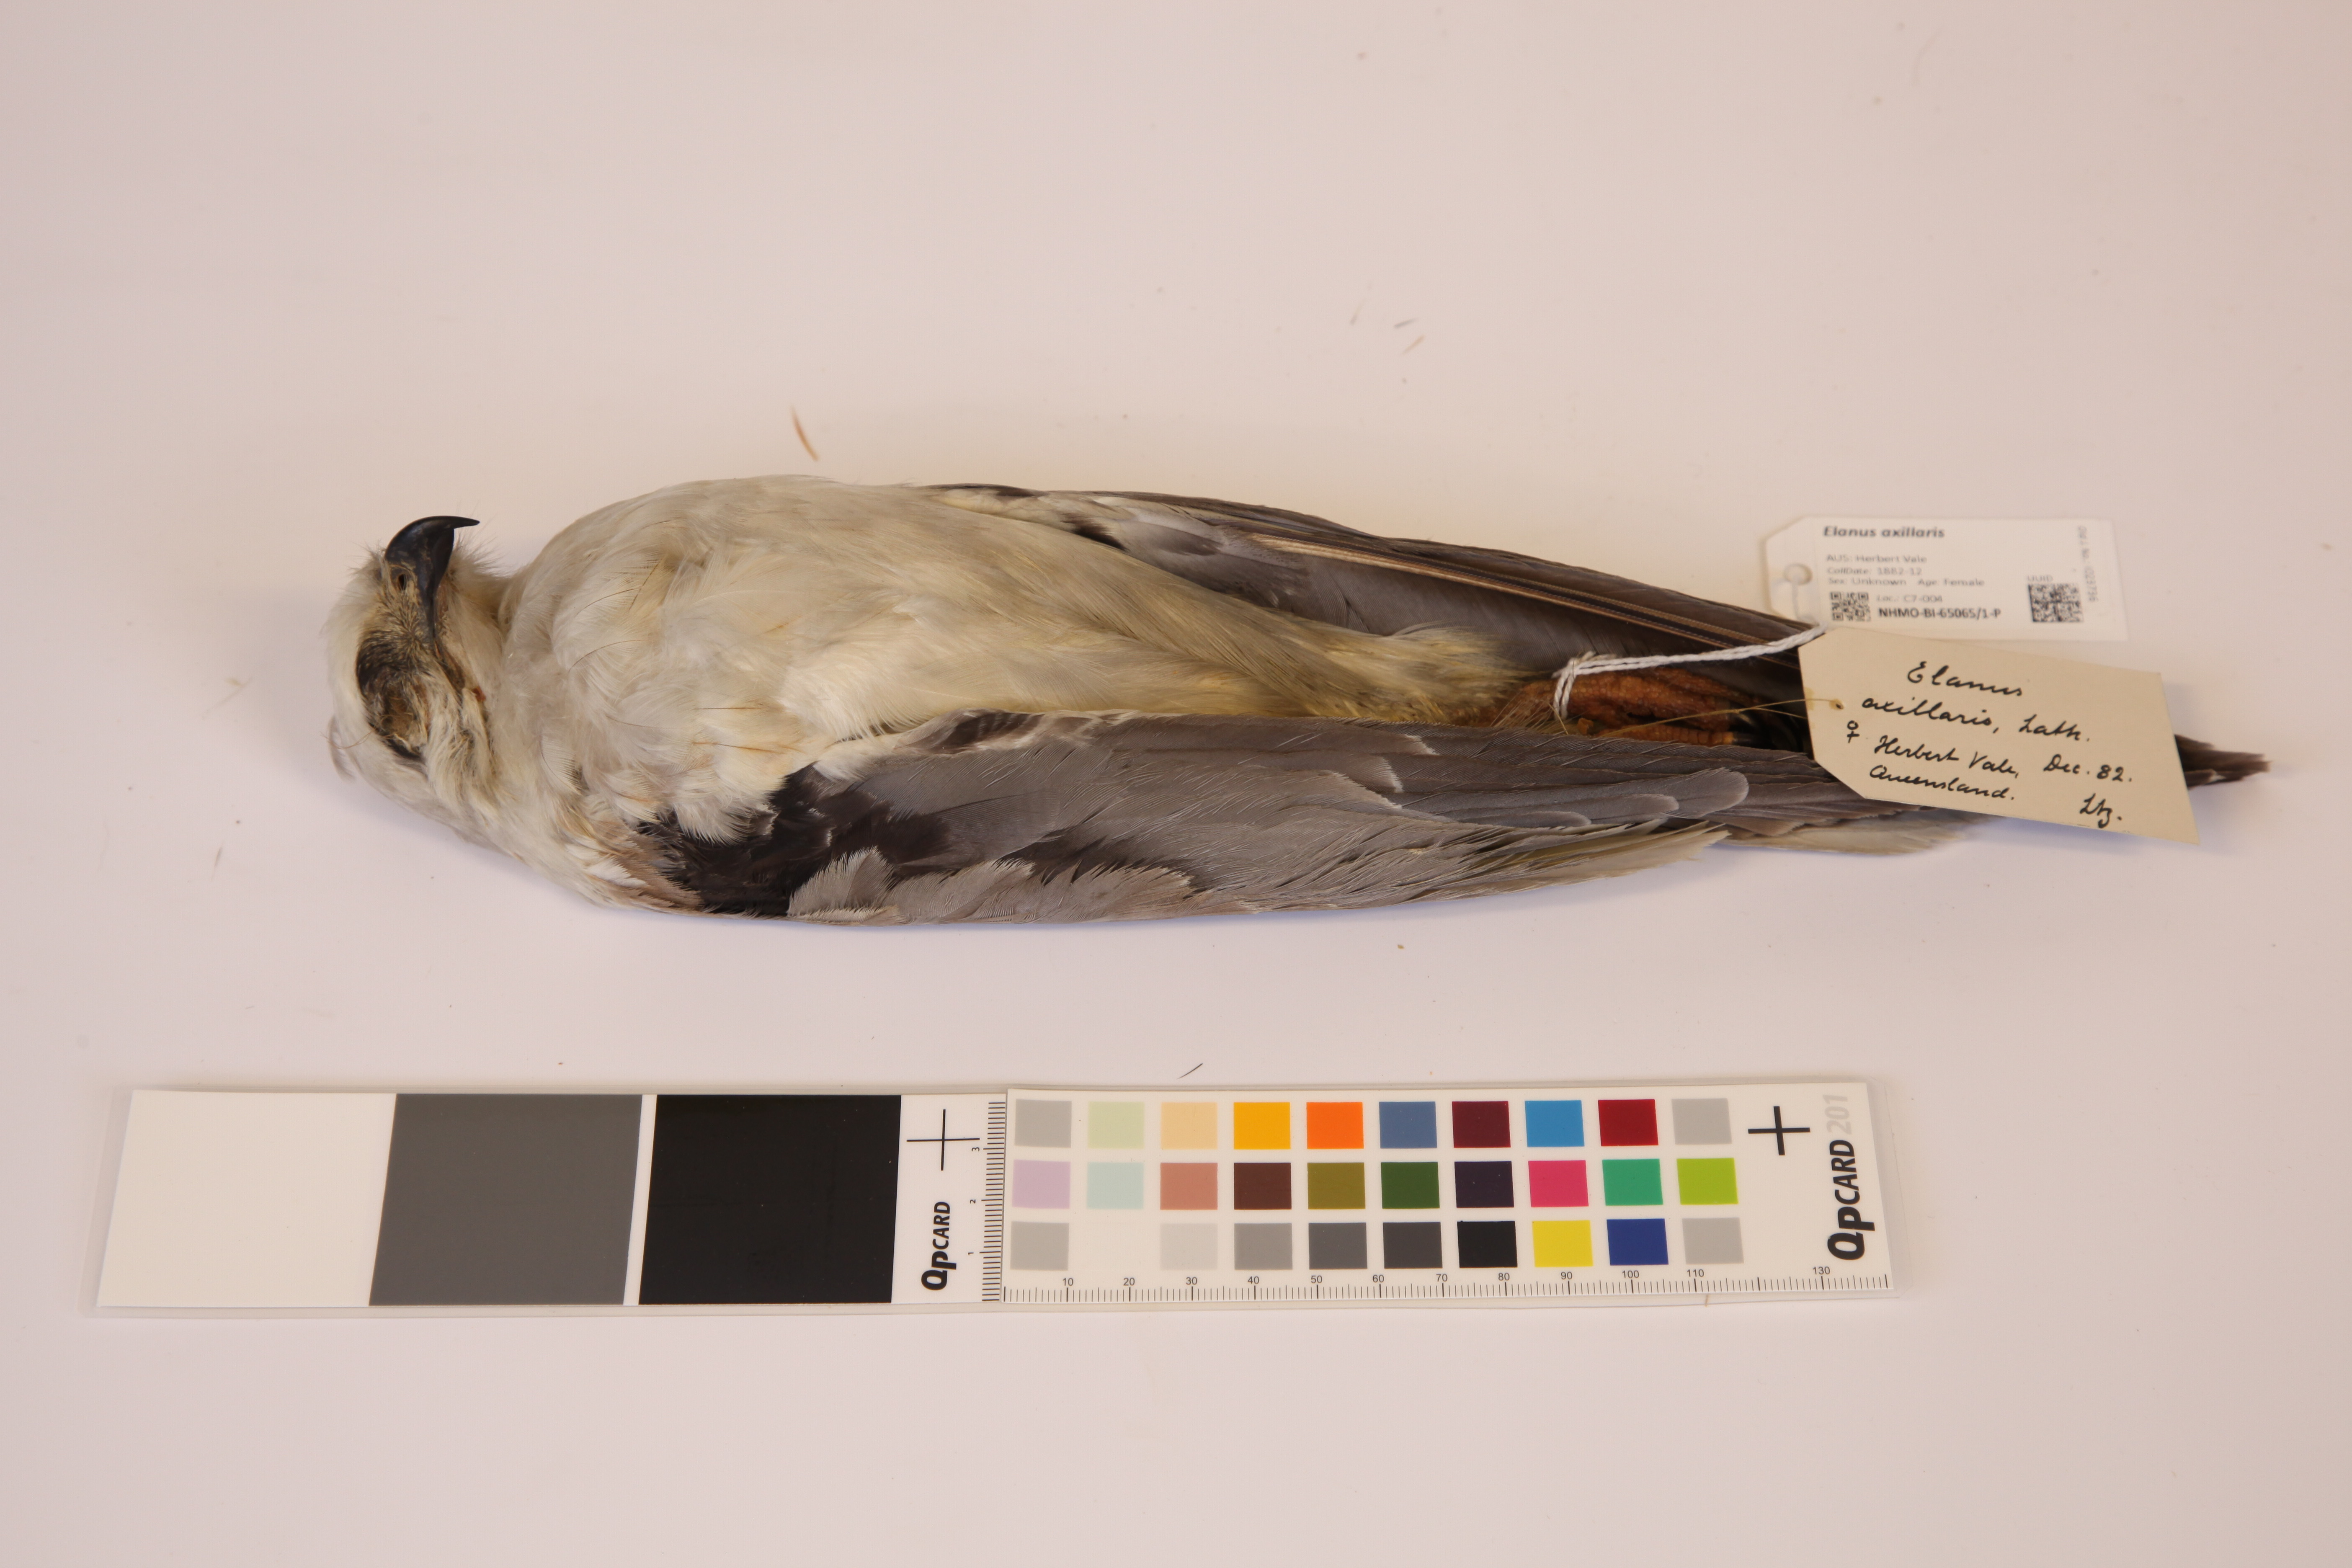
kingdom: Animalia
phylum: Chordata
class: Aves
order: Accipitriformes
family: Accipitridae
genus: Elanus
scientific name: Elanus axillaris
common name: Black-shouldered kite
